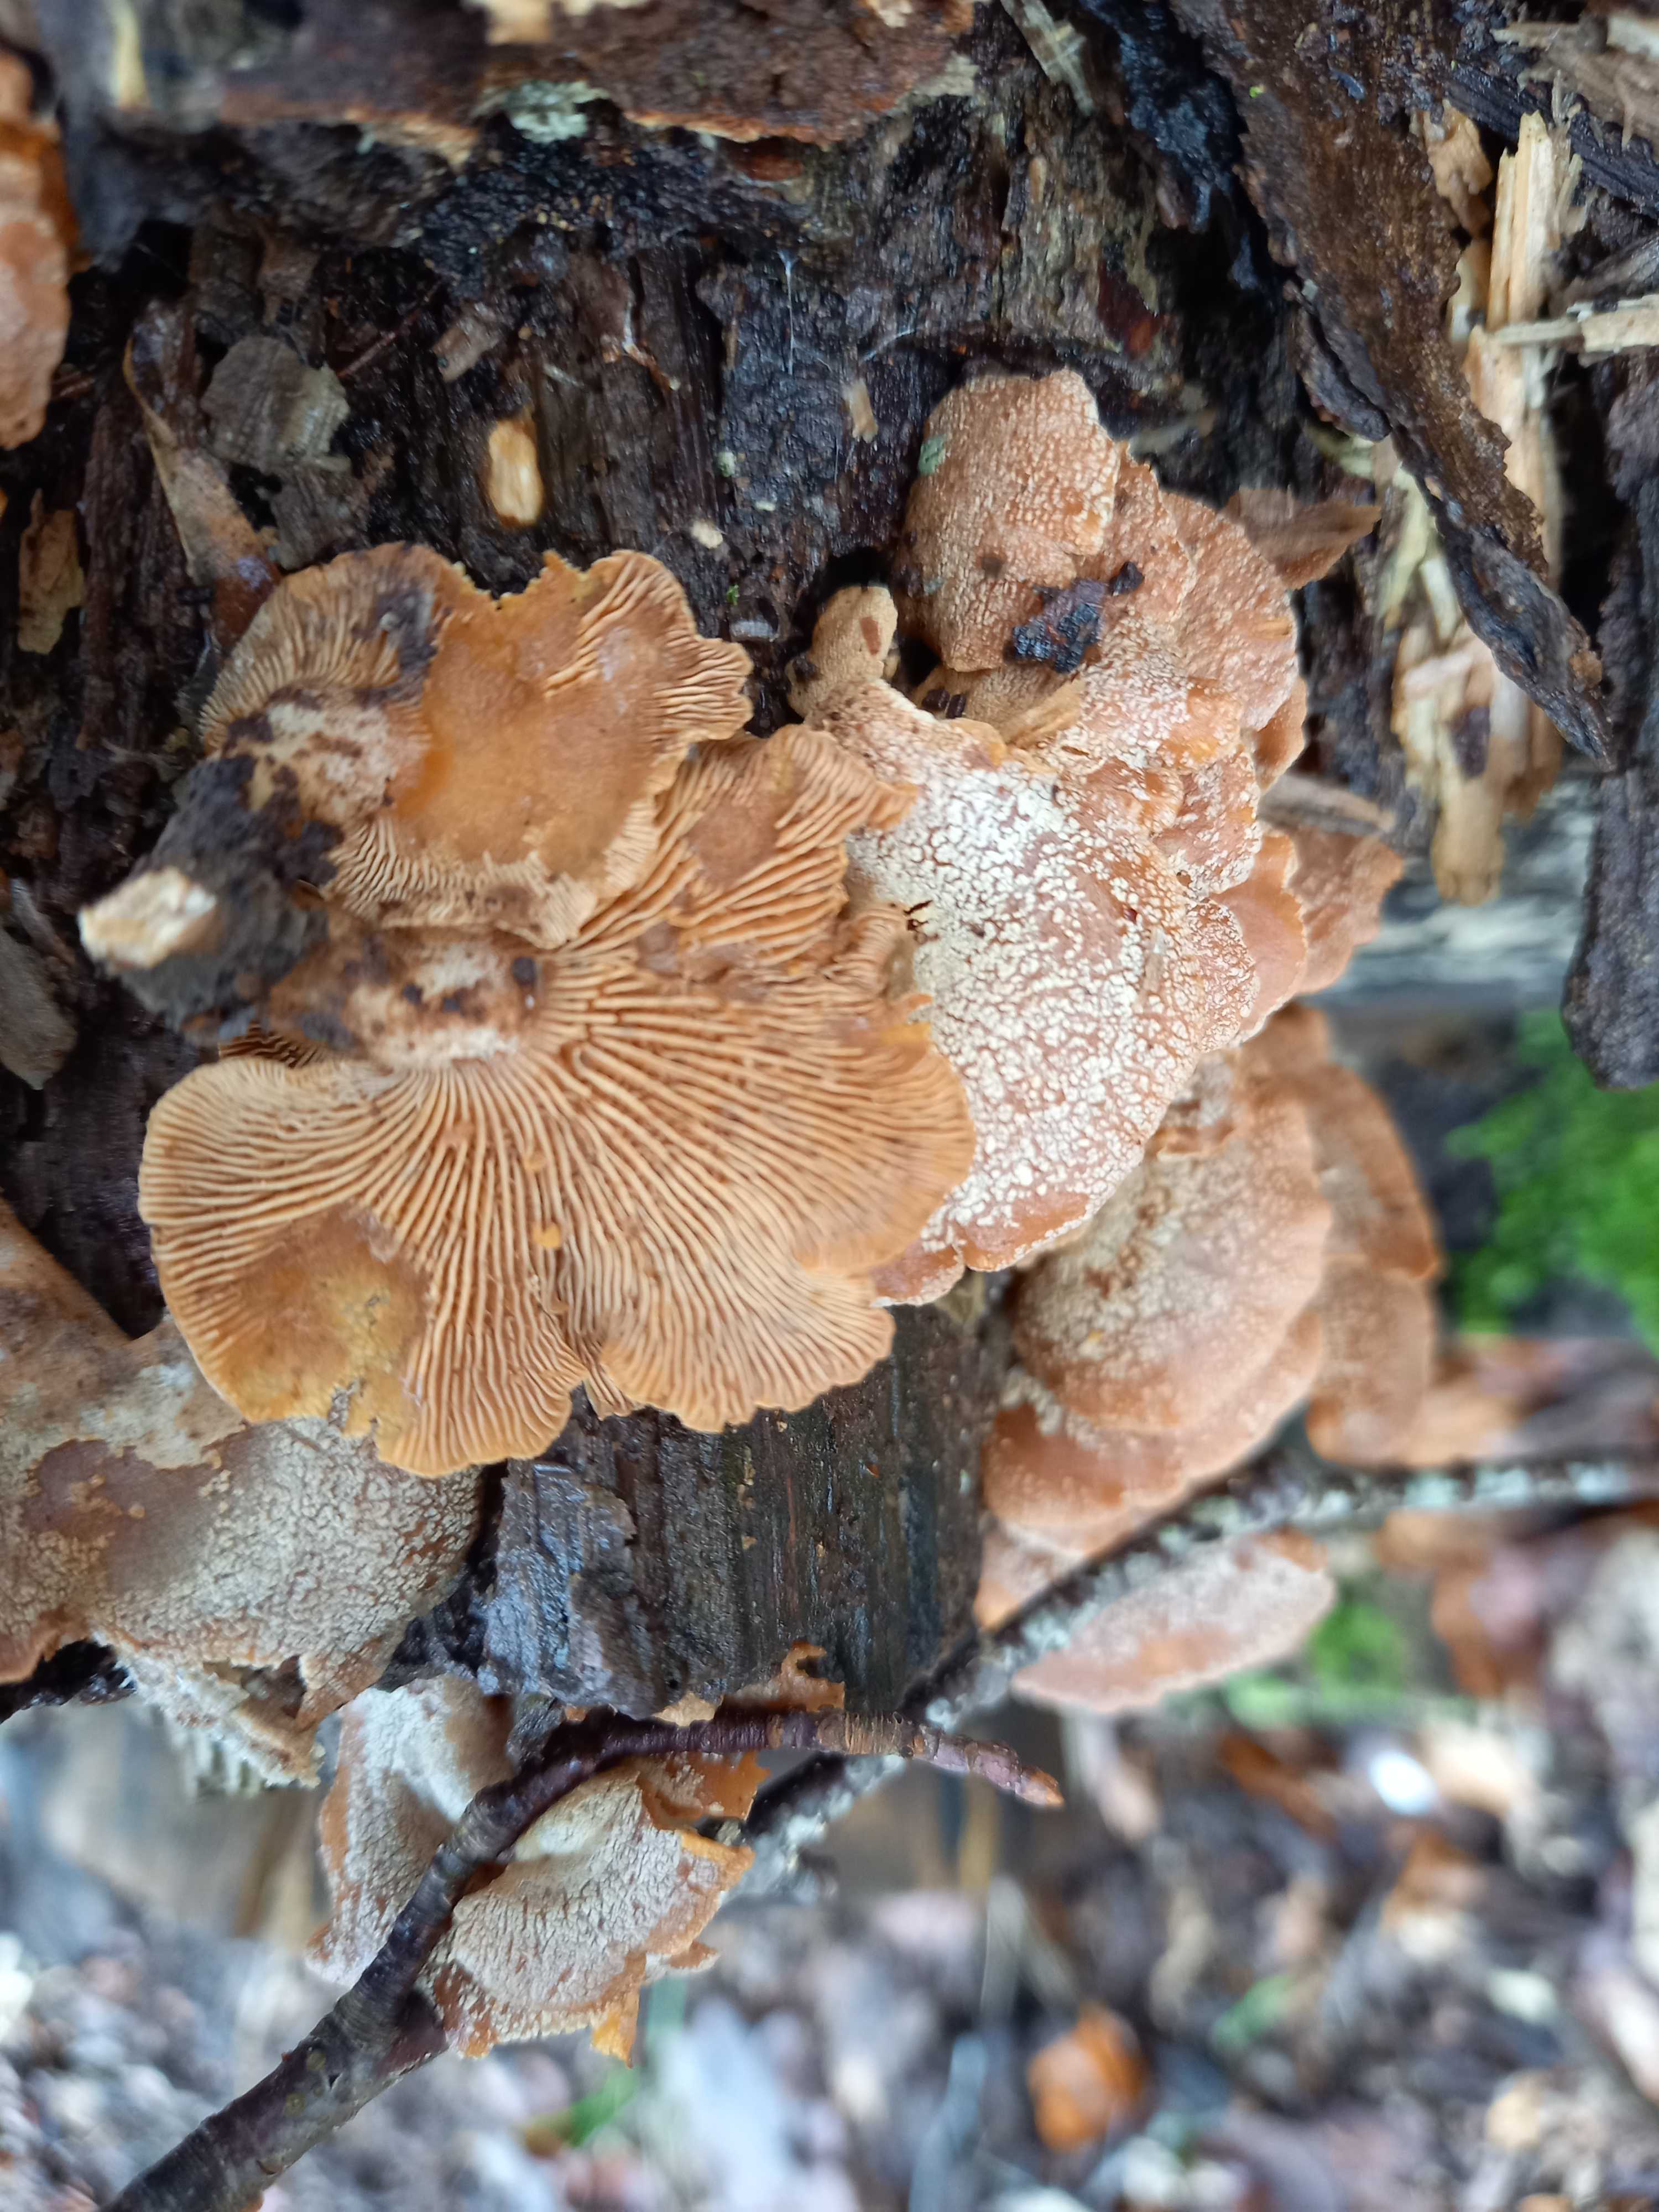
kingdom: Fungi
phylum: Basidiomycota
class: Agaricomycetes
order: Agaricales
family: Mycenaceae
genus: Panellus
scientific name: Panellus stipticus
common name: kliddet epaulethat
